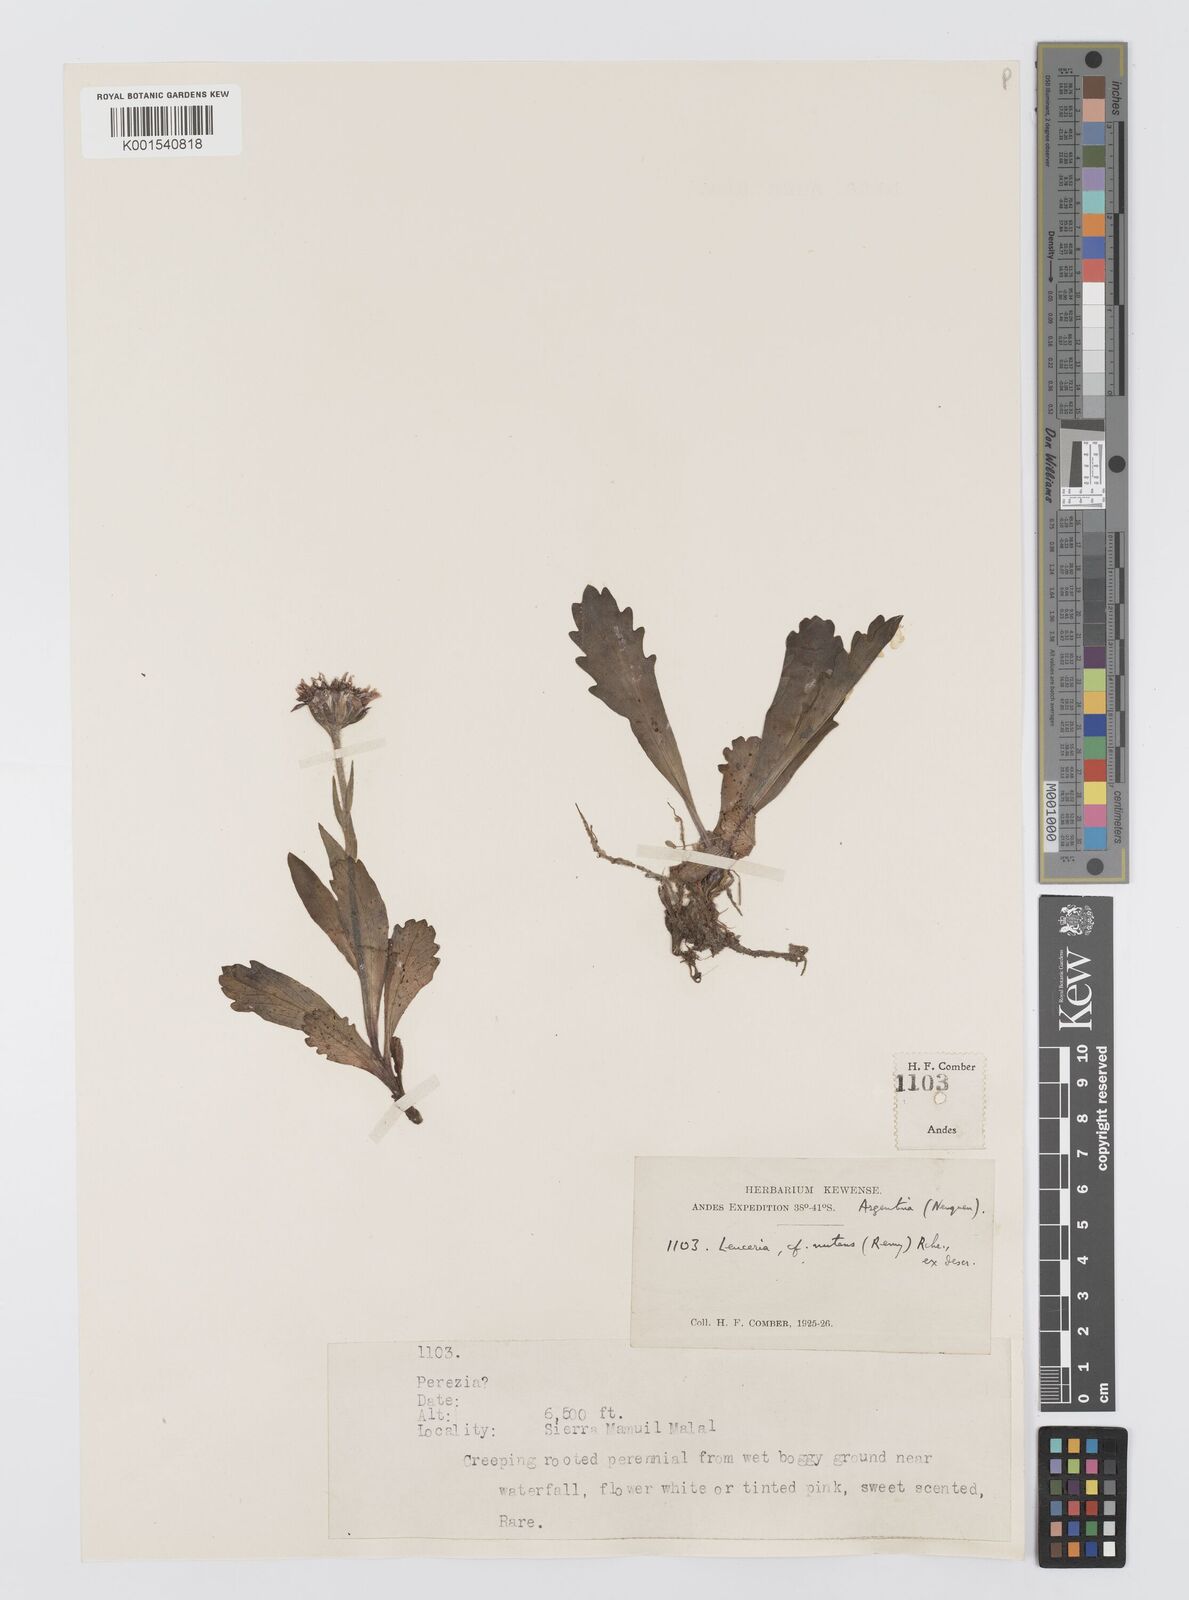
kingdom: Plantae
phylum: Tracheophyta
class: Magnoliopsida
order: Asterales
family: Asteraceae
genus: Leucheria
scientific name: Leucheria nutans
